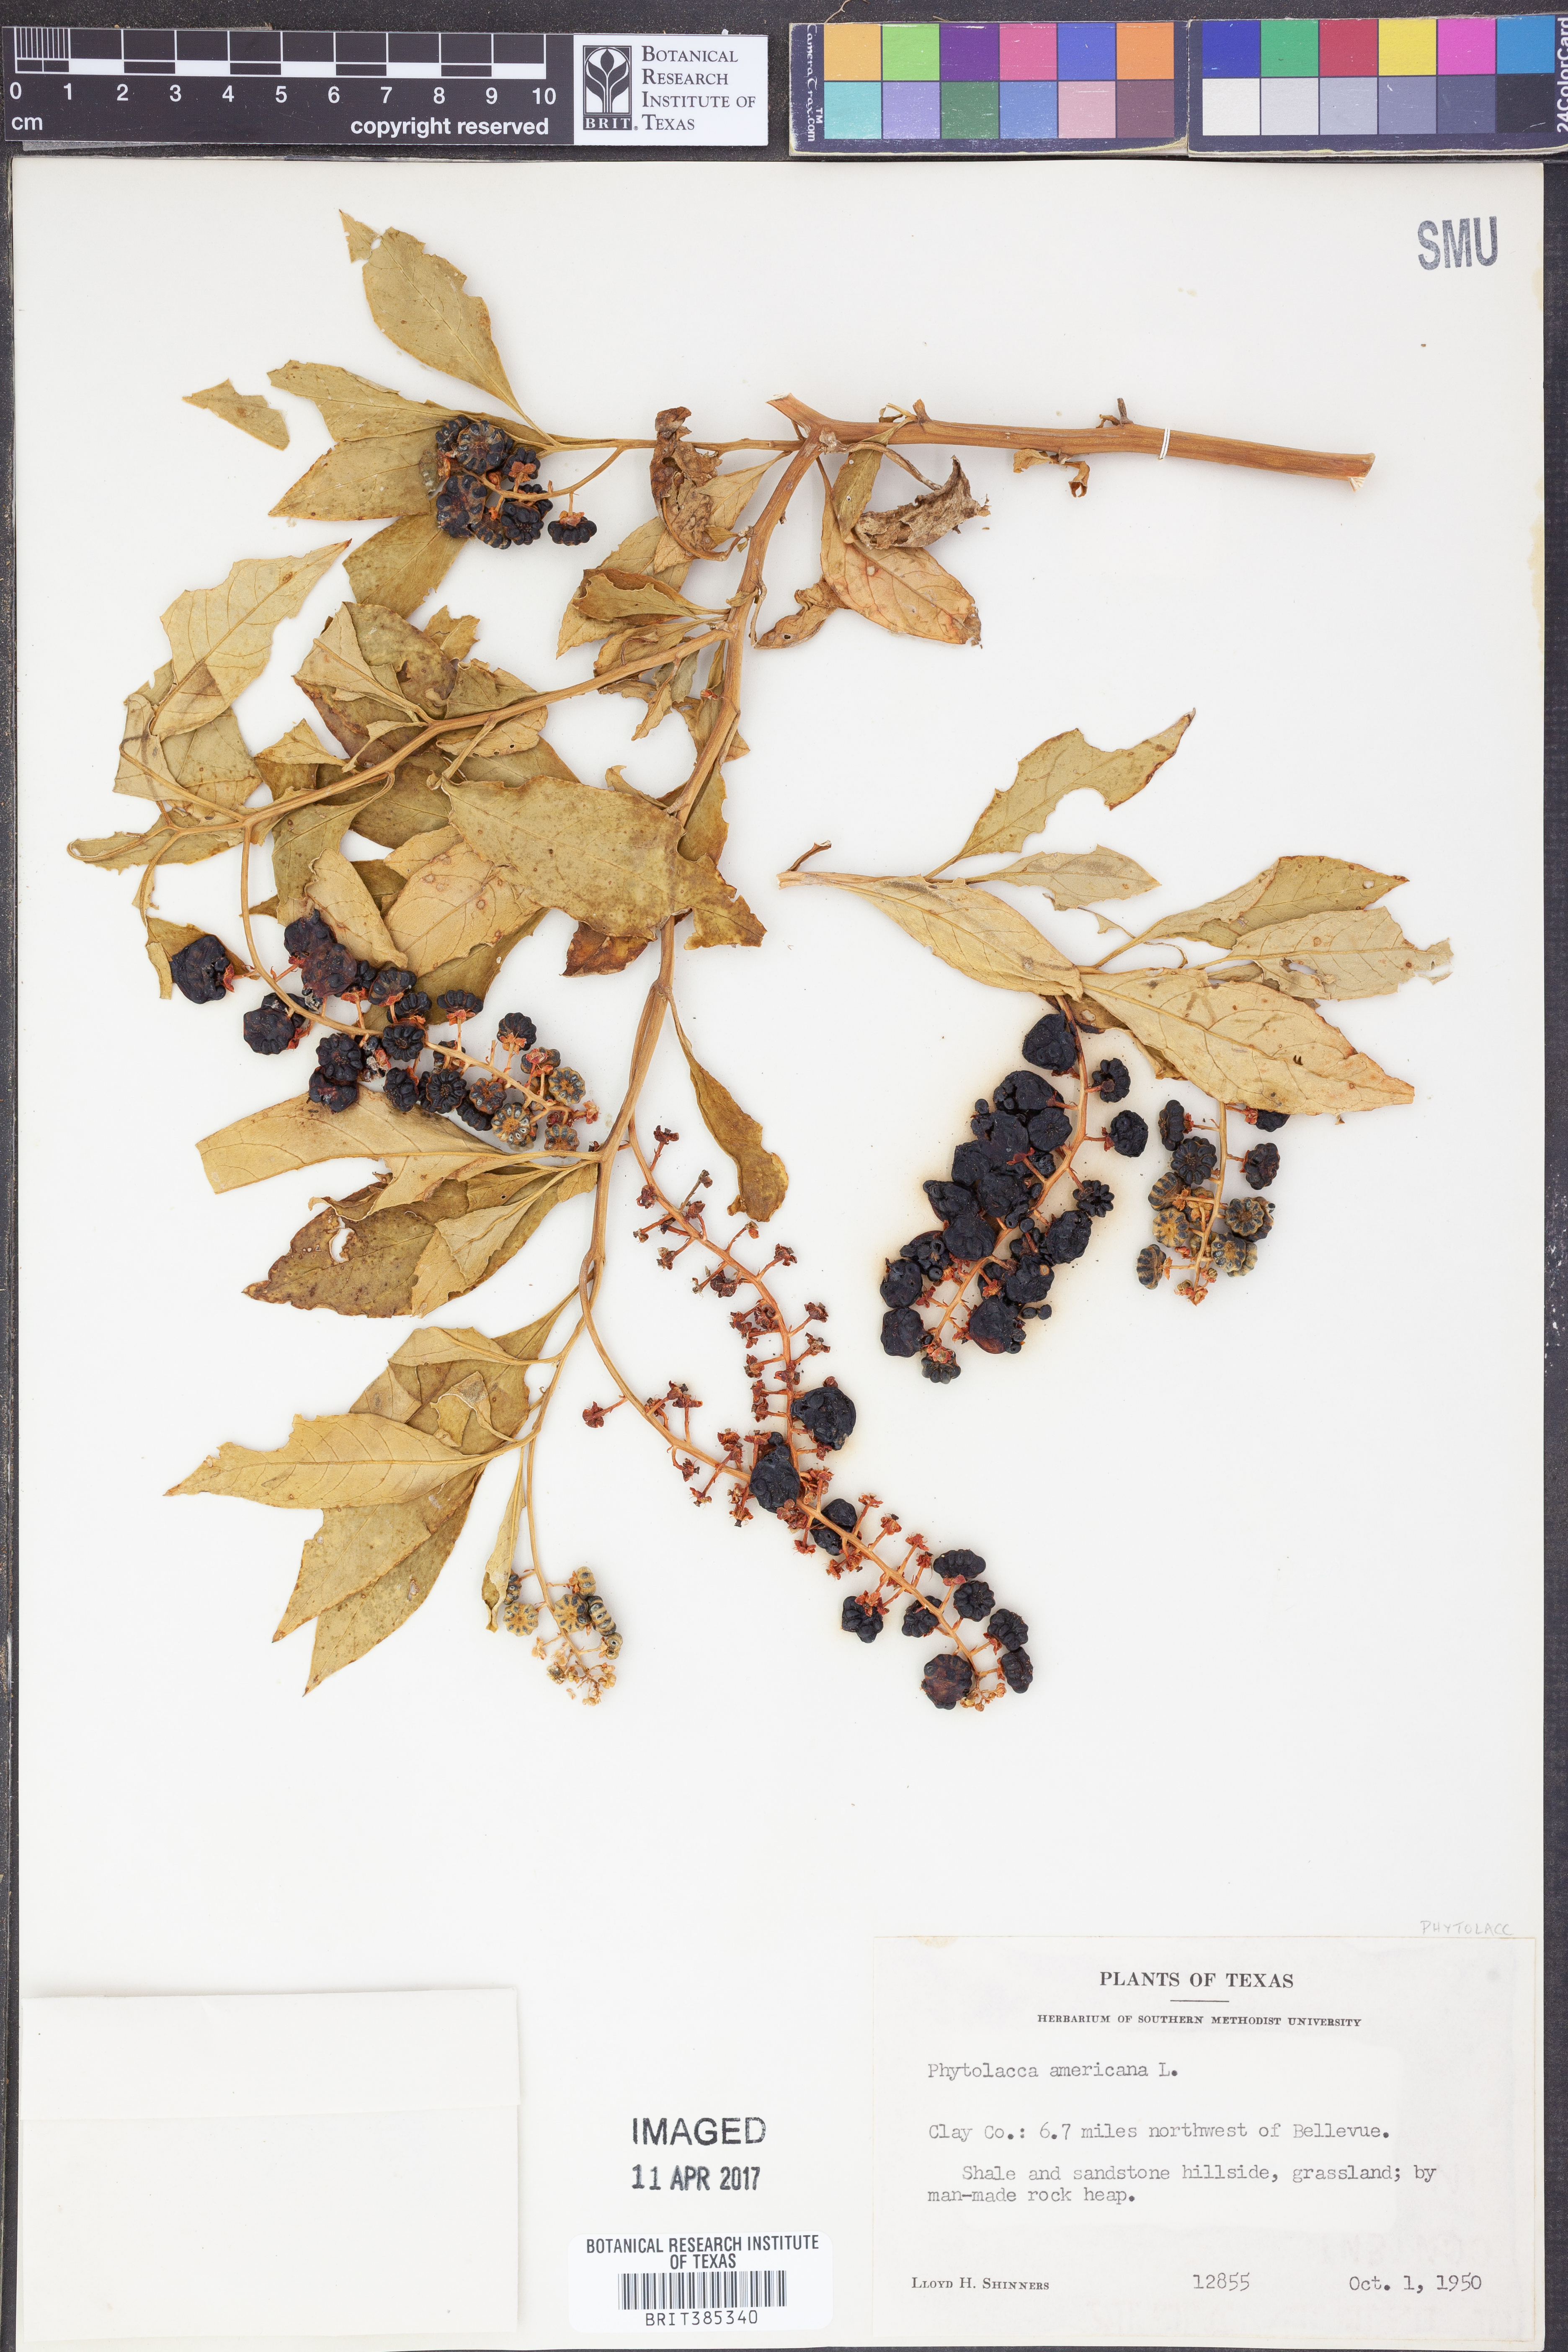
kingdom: Plantae
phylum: Tracheophyta
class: Magnoliopsida
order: Caryophyllales
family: Phytolaccaceae
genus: Phytolacca
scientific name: Phytolacca americana
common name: American pokeweed
